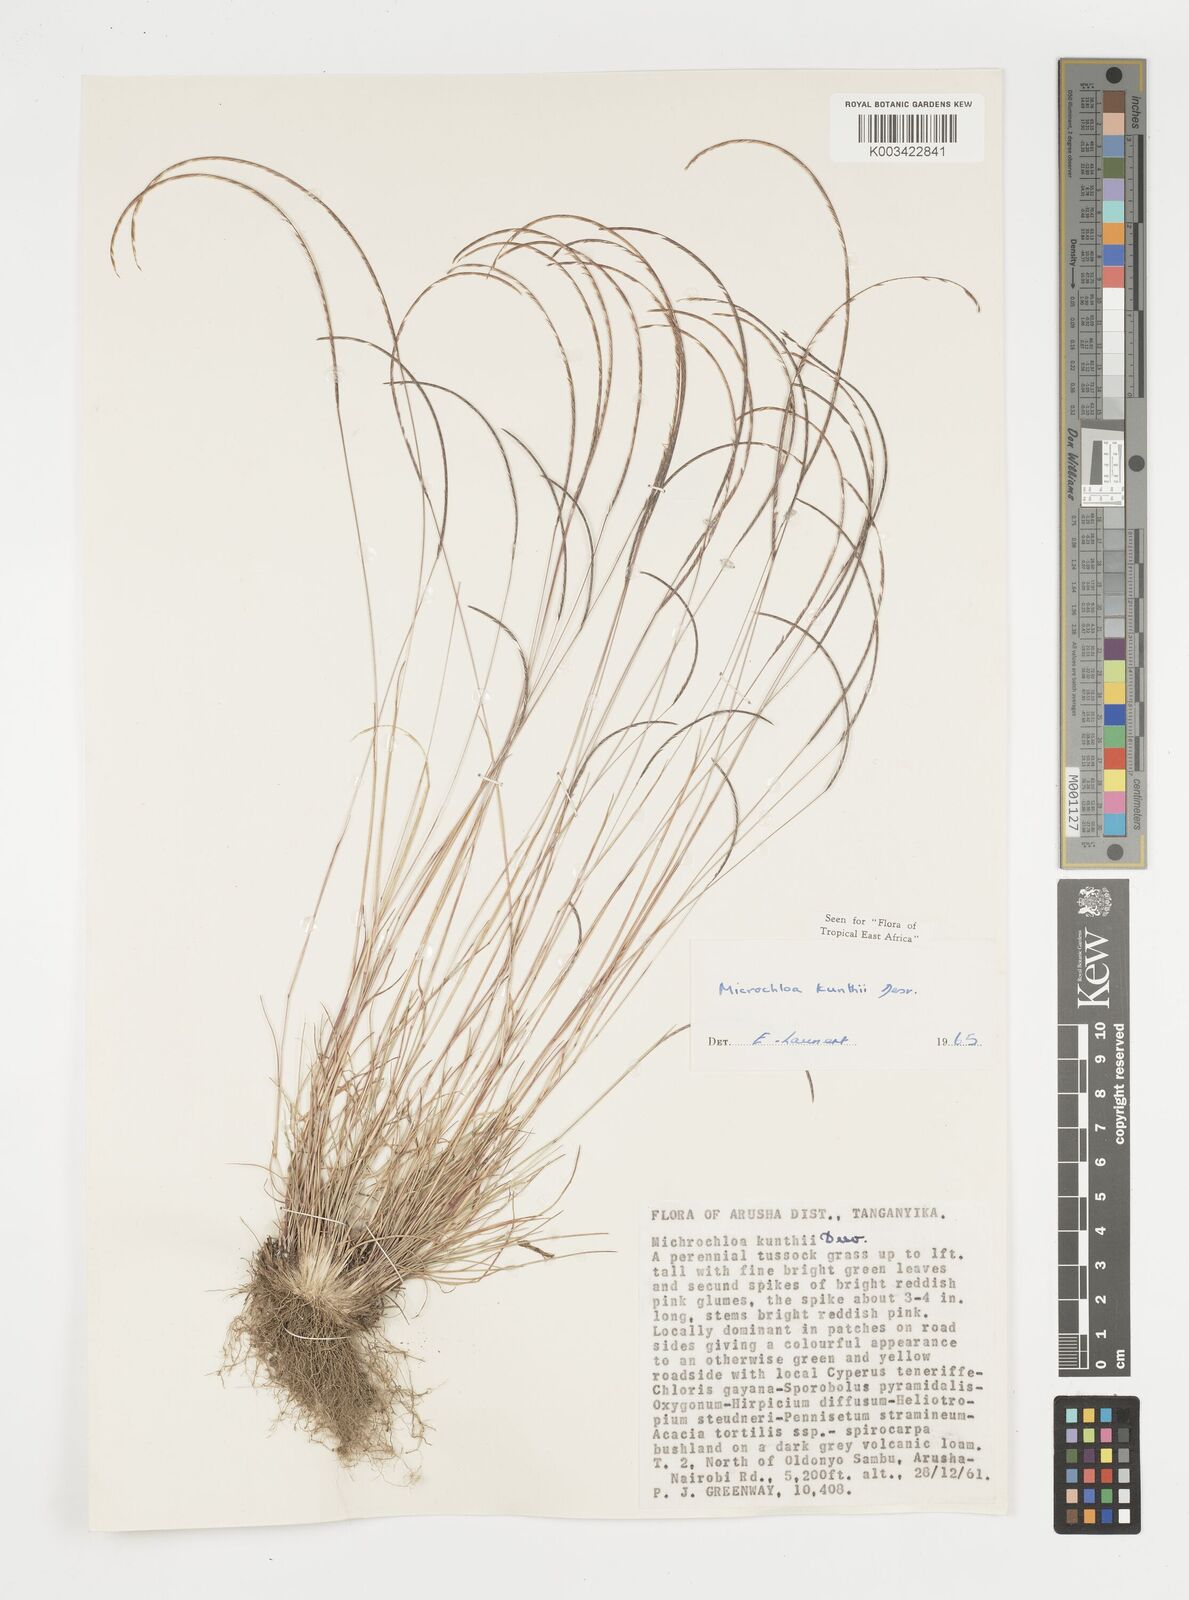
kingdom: Plantae
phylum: Tracheophyta
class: Liliopsida
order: Poales
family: Poaceae
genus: Microchloa
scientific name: Microchloa kunthii
